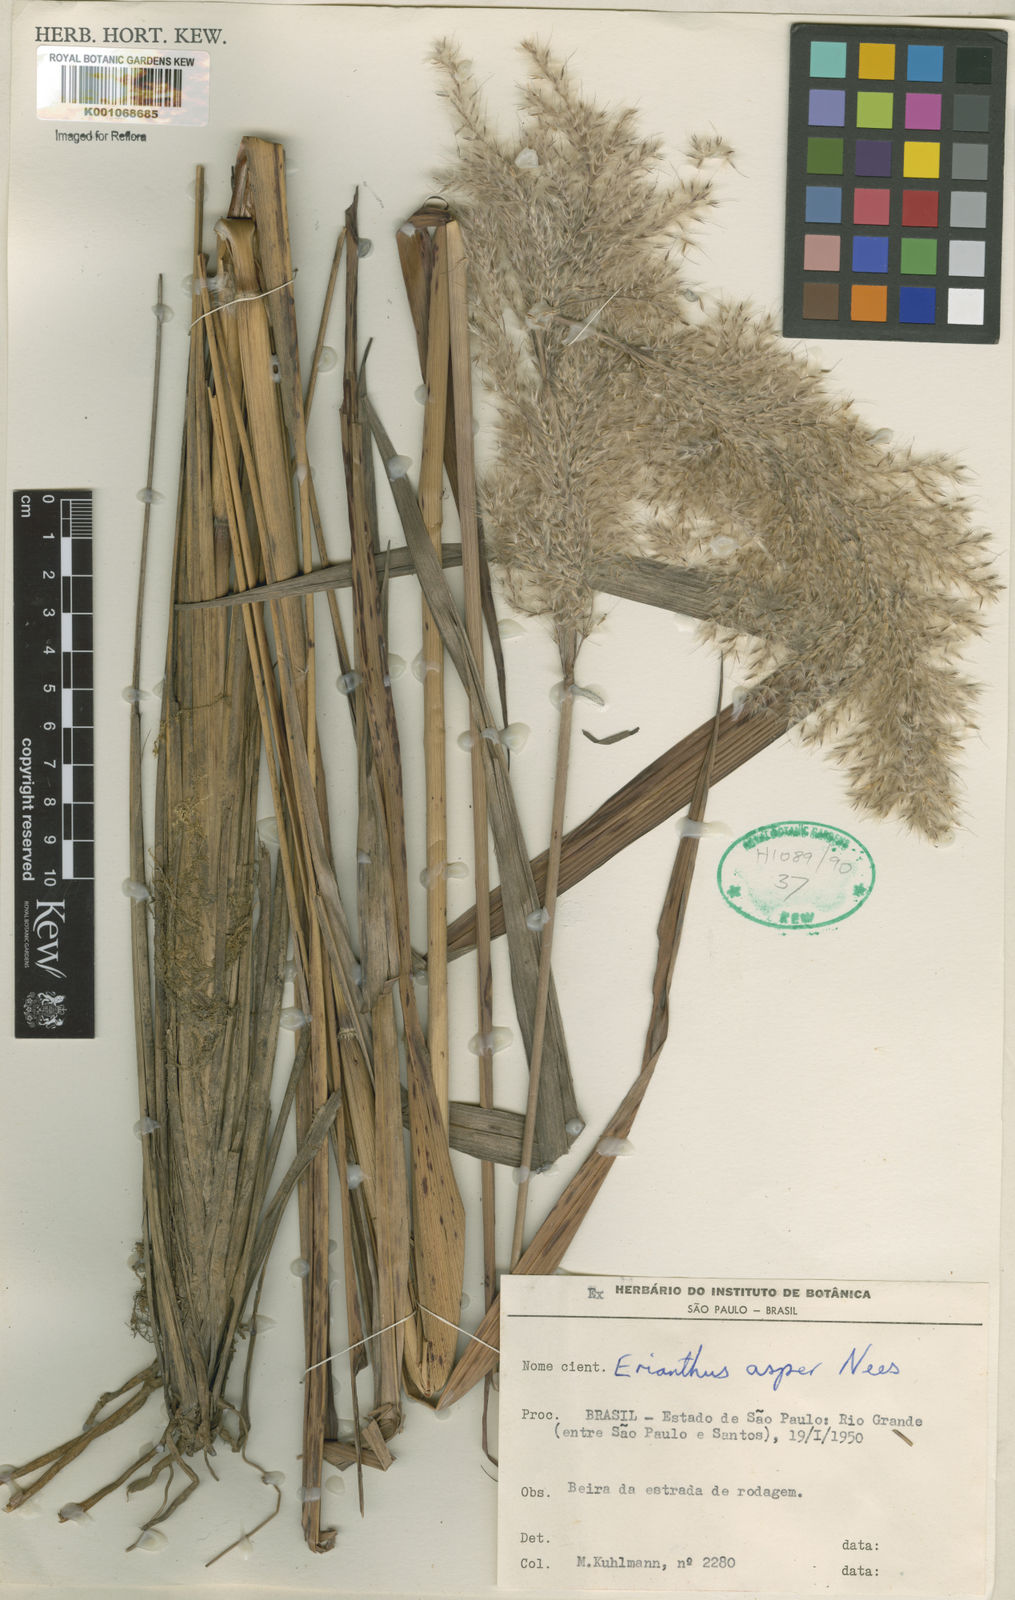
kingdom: Plantae
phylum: Tracheophyta
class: Liliopsida
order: Poales
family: Poaceae
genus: Erianthus
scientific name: Erianthus asper
